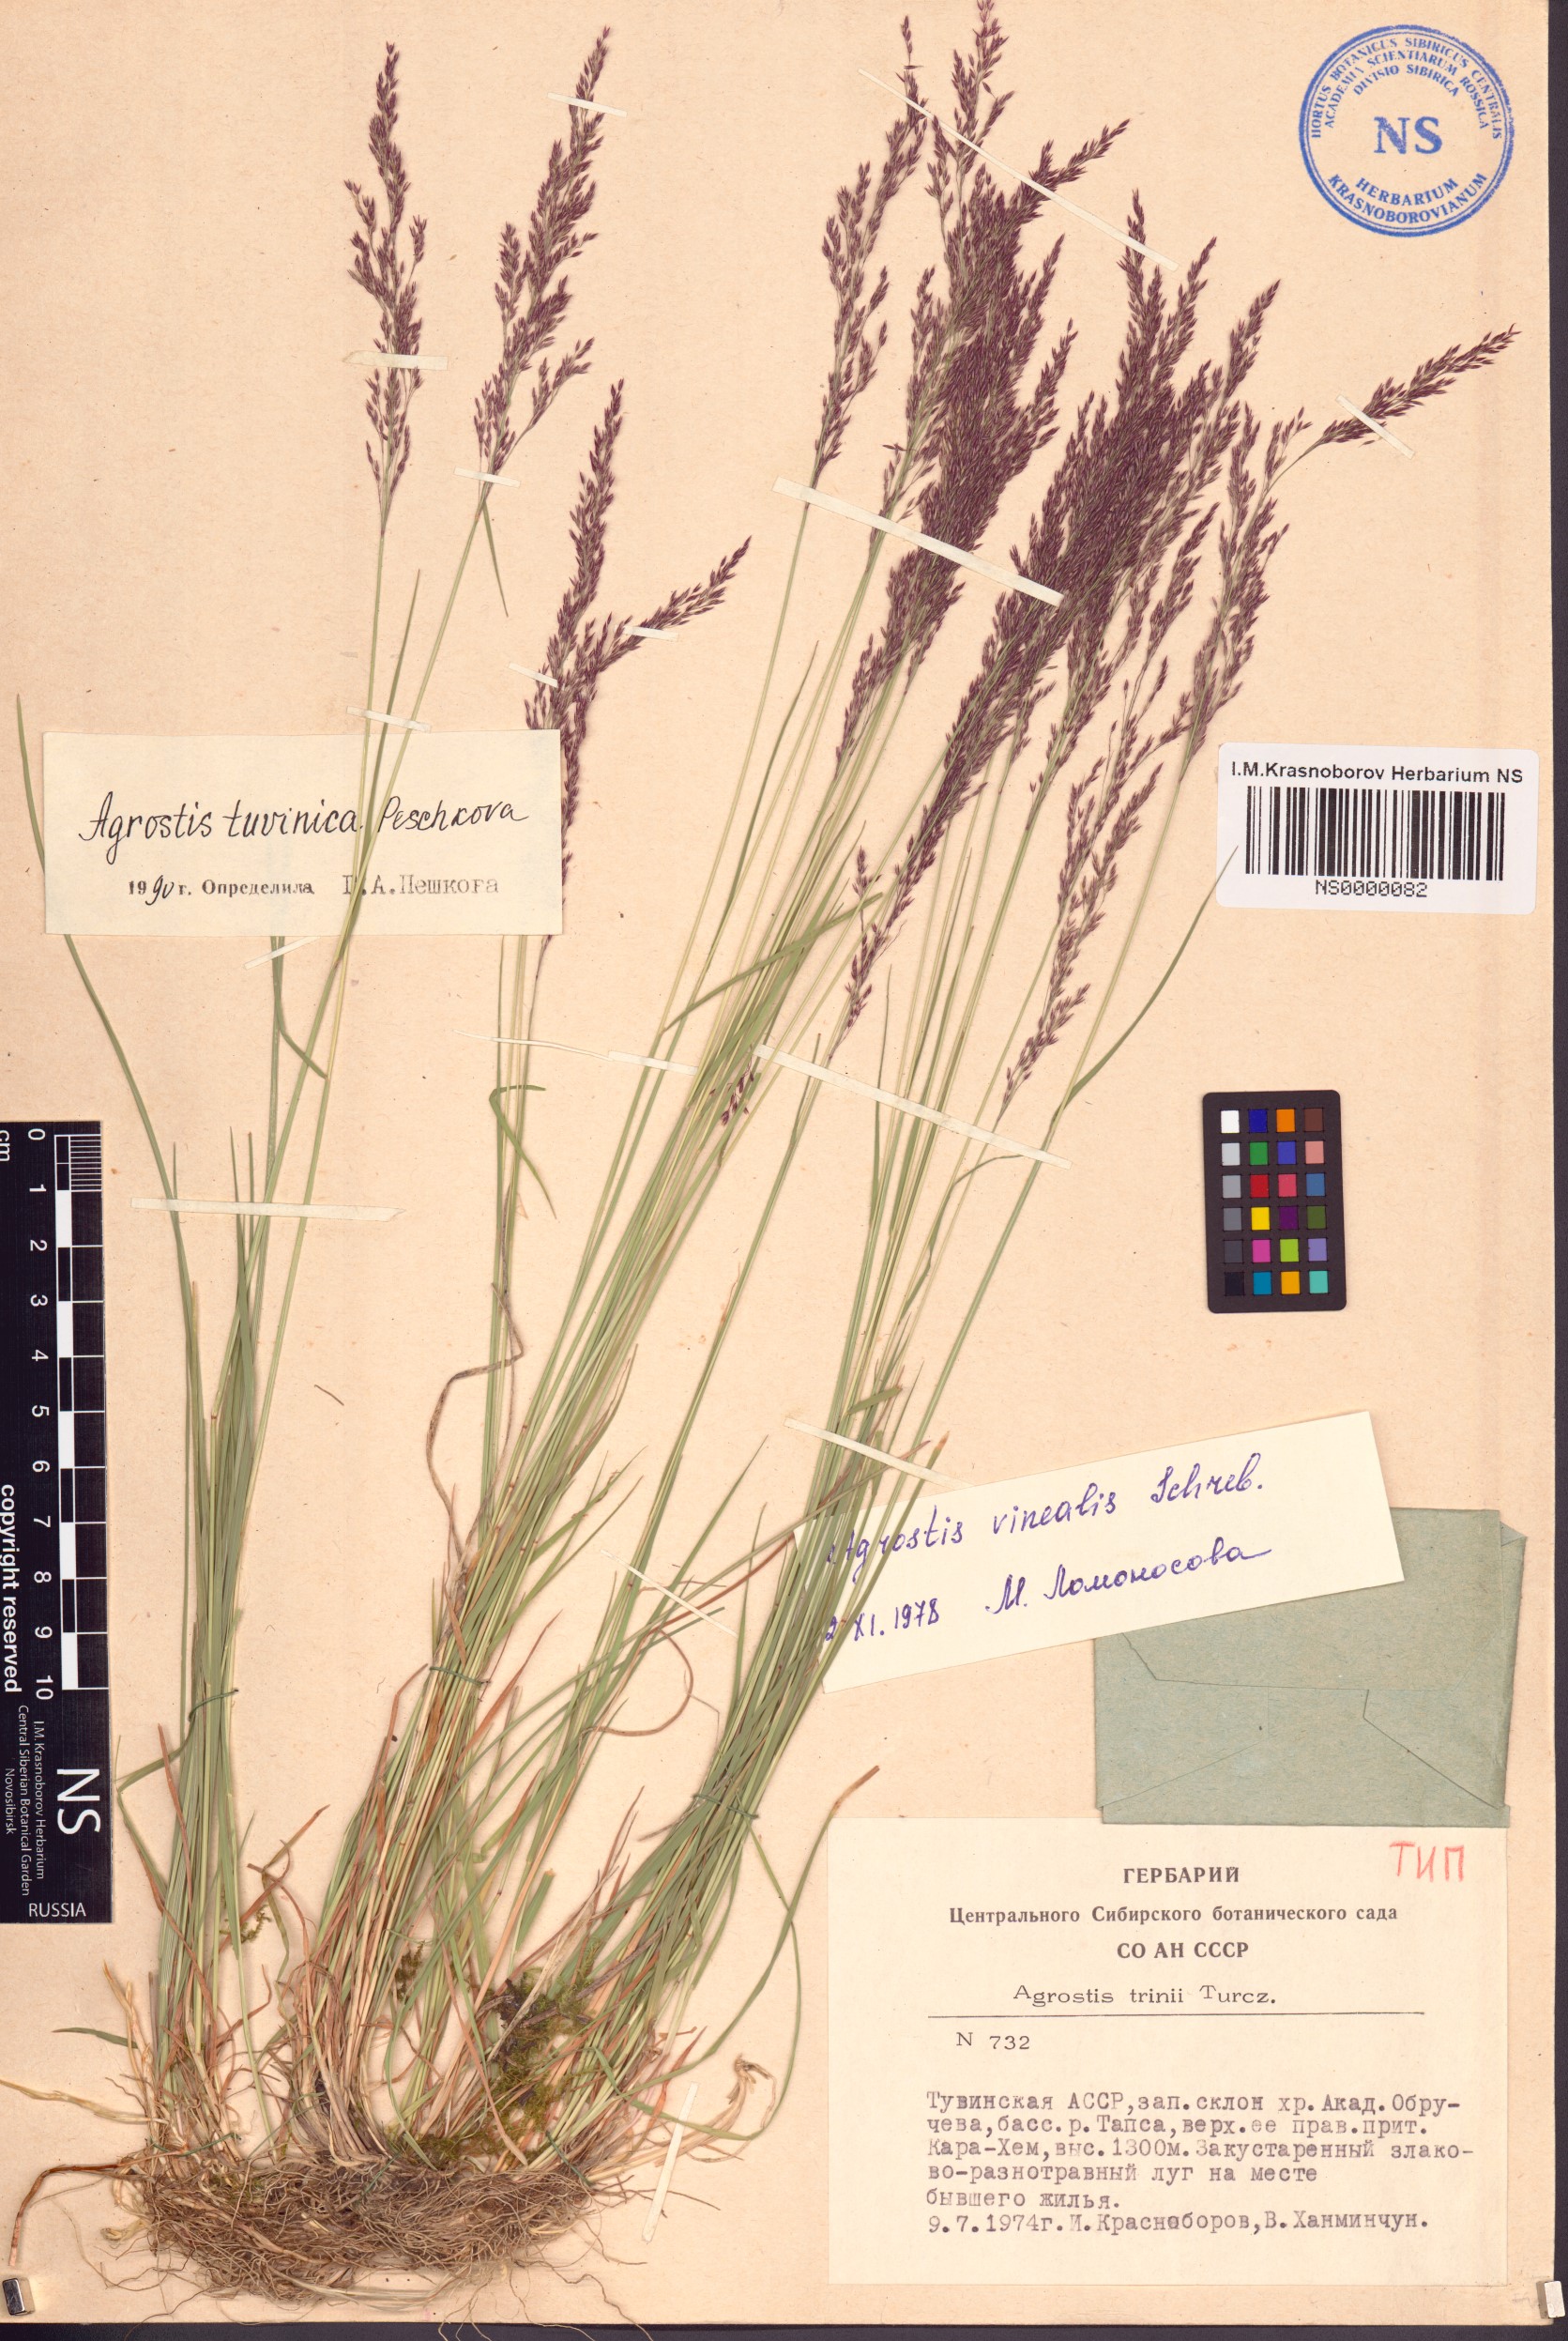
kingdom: Plantae
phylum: Tracheophyta
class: Liliopsida
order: Poales
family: Poaceae
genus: Agrostis
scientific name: Agrostis tuvinica
